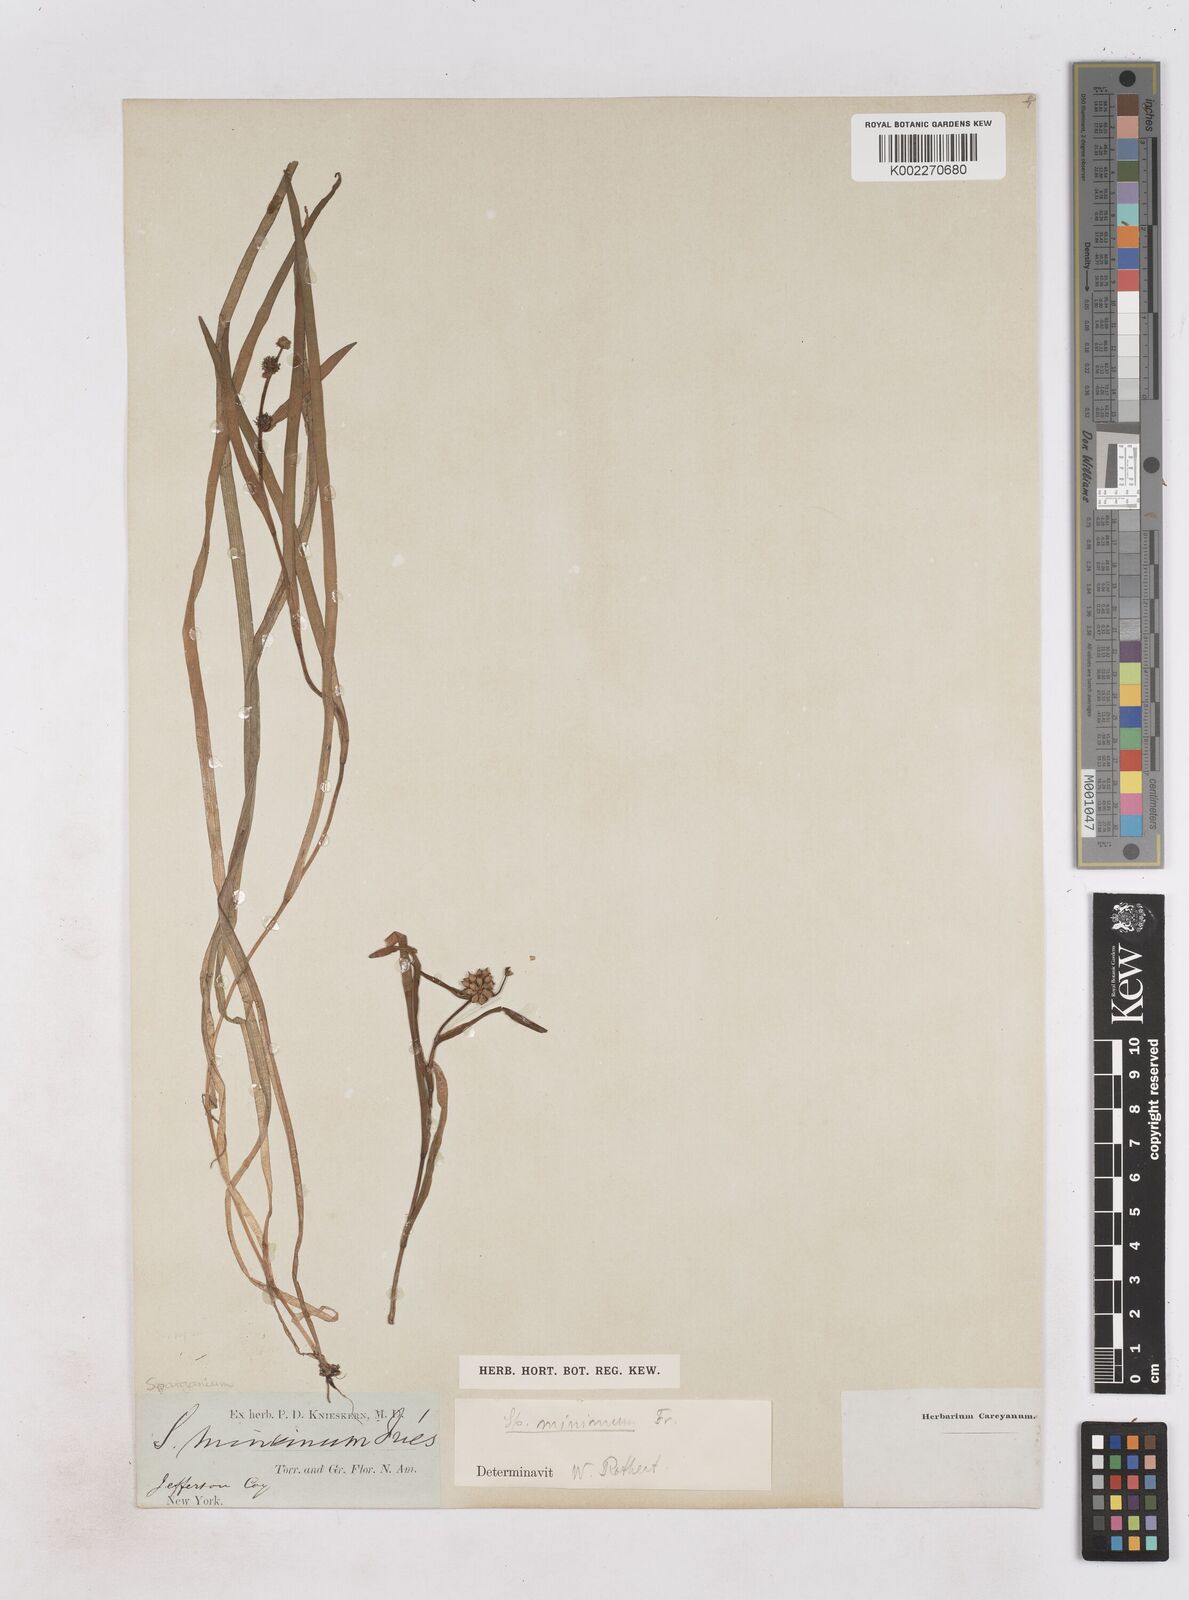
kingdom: Plantae
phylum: Tracheophyta
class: Liliopsida
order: Poales
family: Typhaceae
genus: Sparganium
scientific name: Sparganium natans
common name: Least bur-reed
